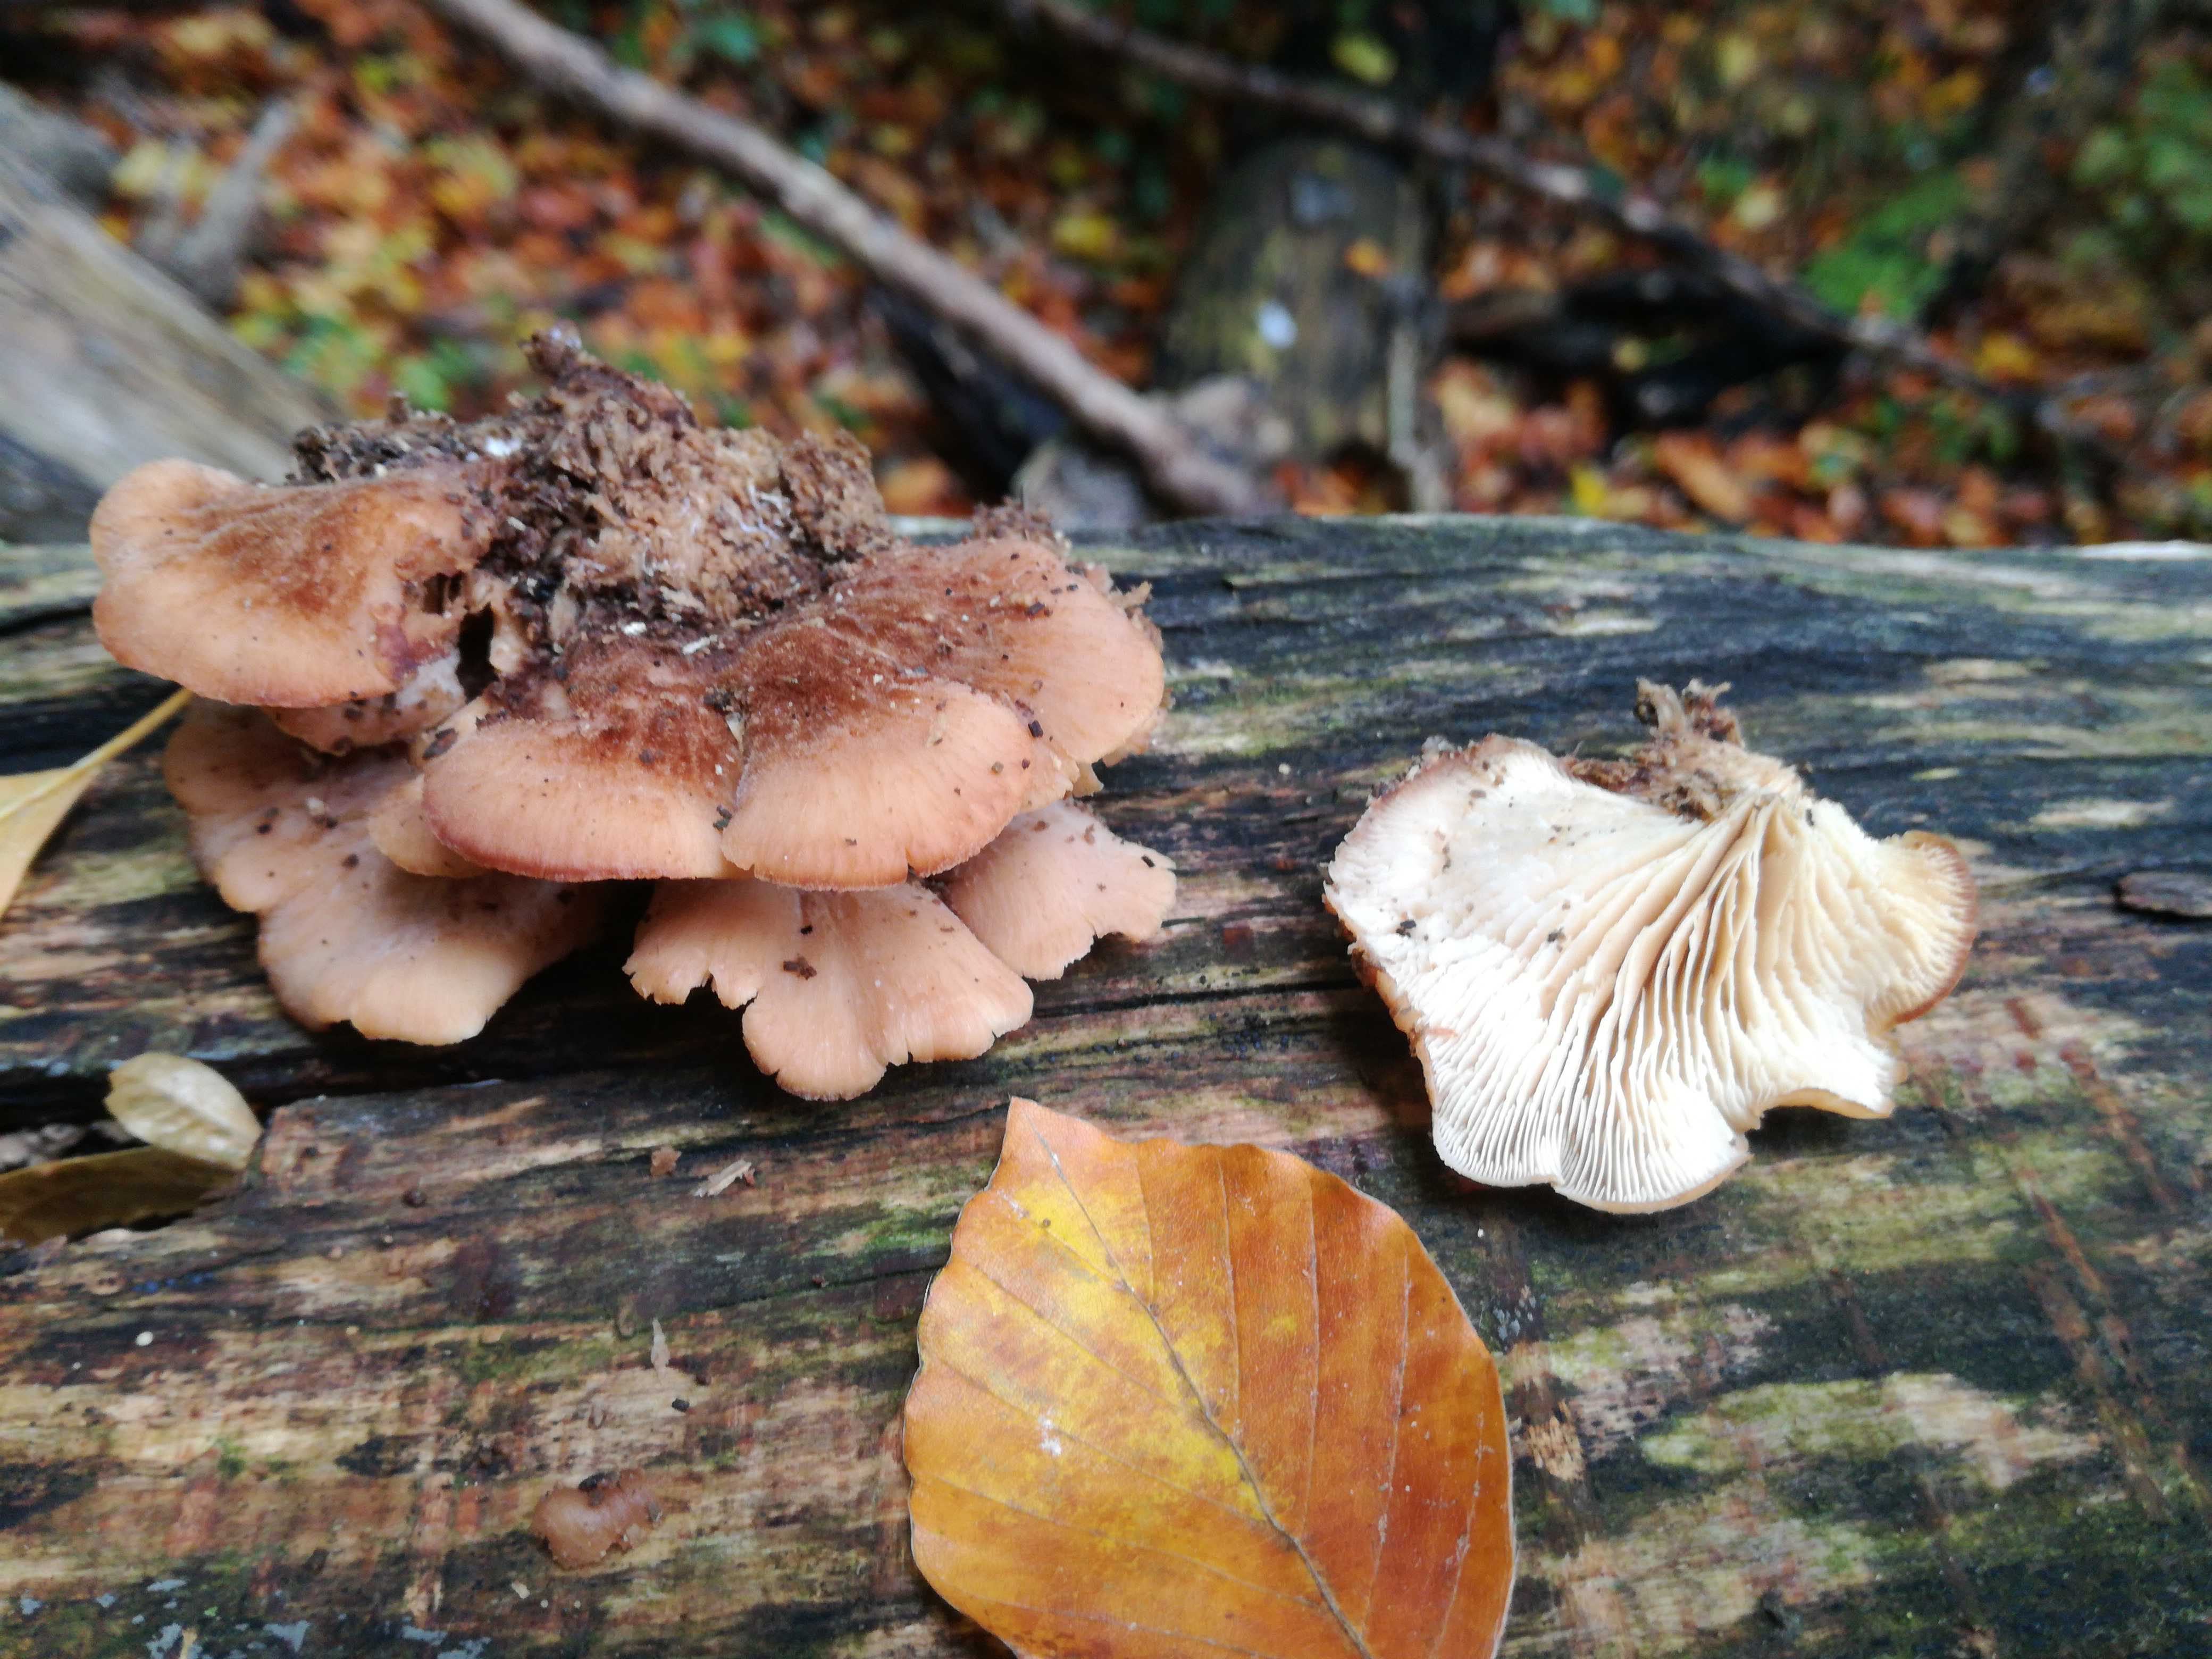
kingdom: Fungi
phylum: Basidiomycota
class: Agaricomycetes
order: Russulales
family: Auriscalpiaceae
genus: Lentinellus
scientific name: Lentinellus ursinus
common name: børstehåret savbladhat
